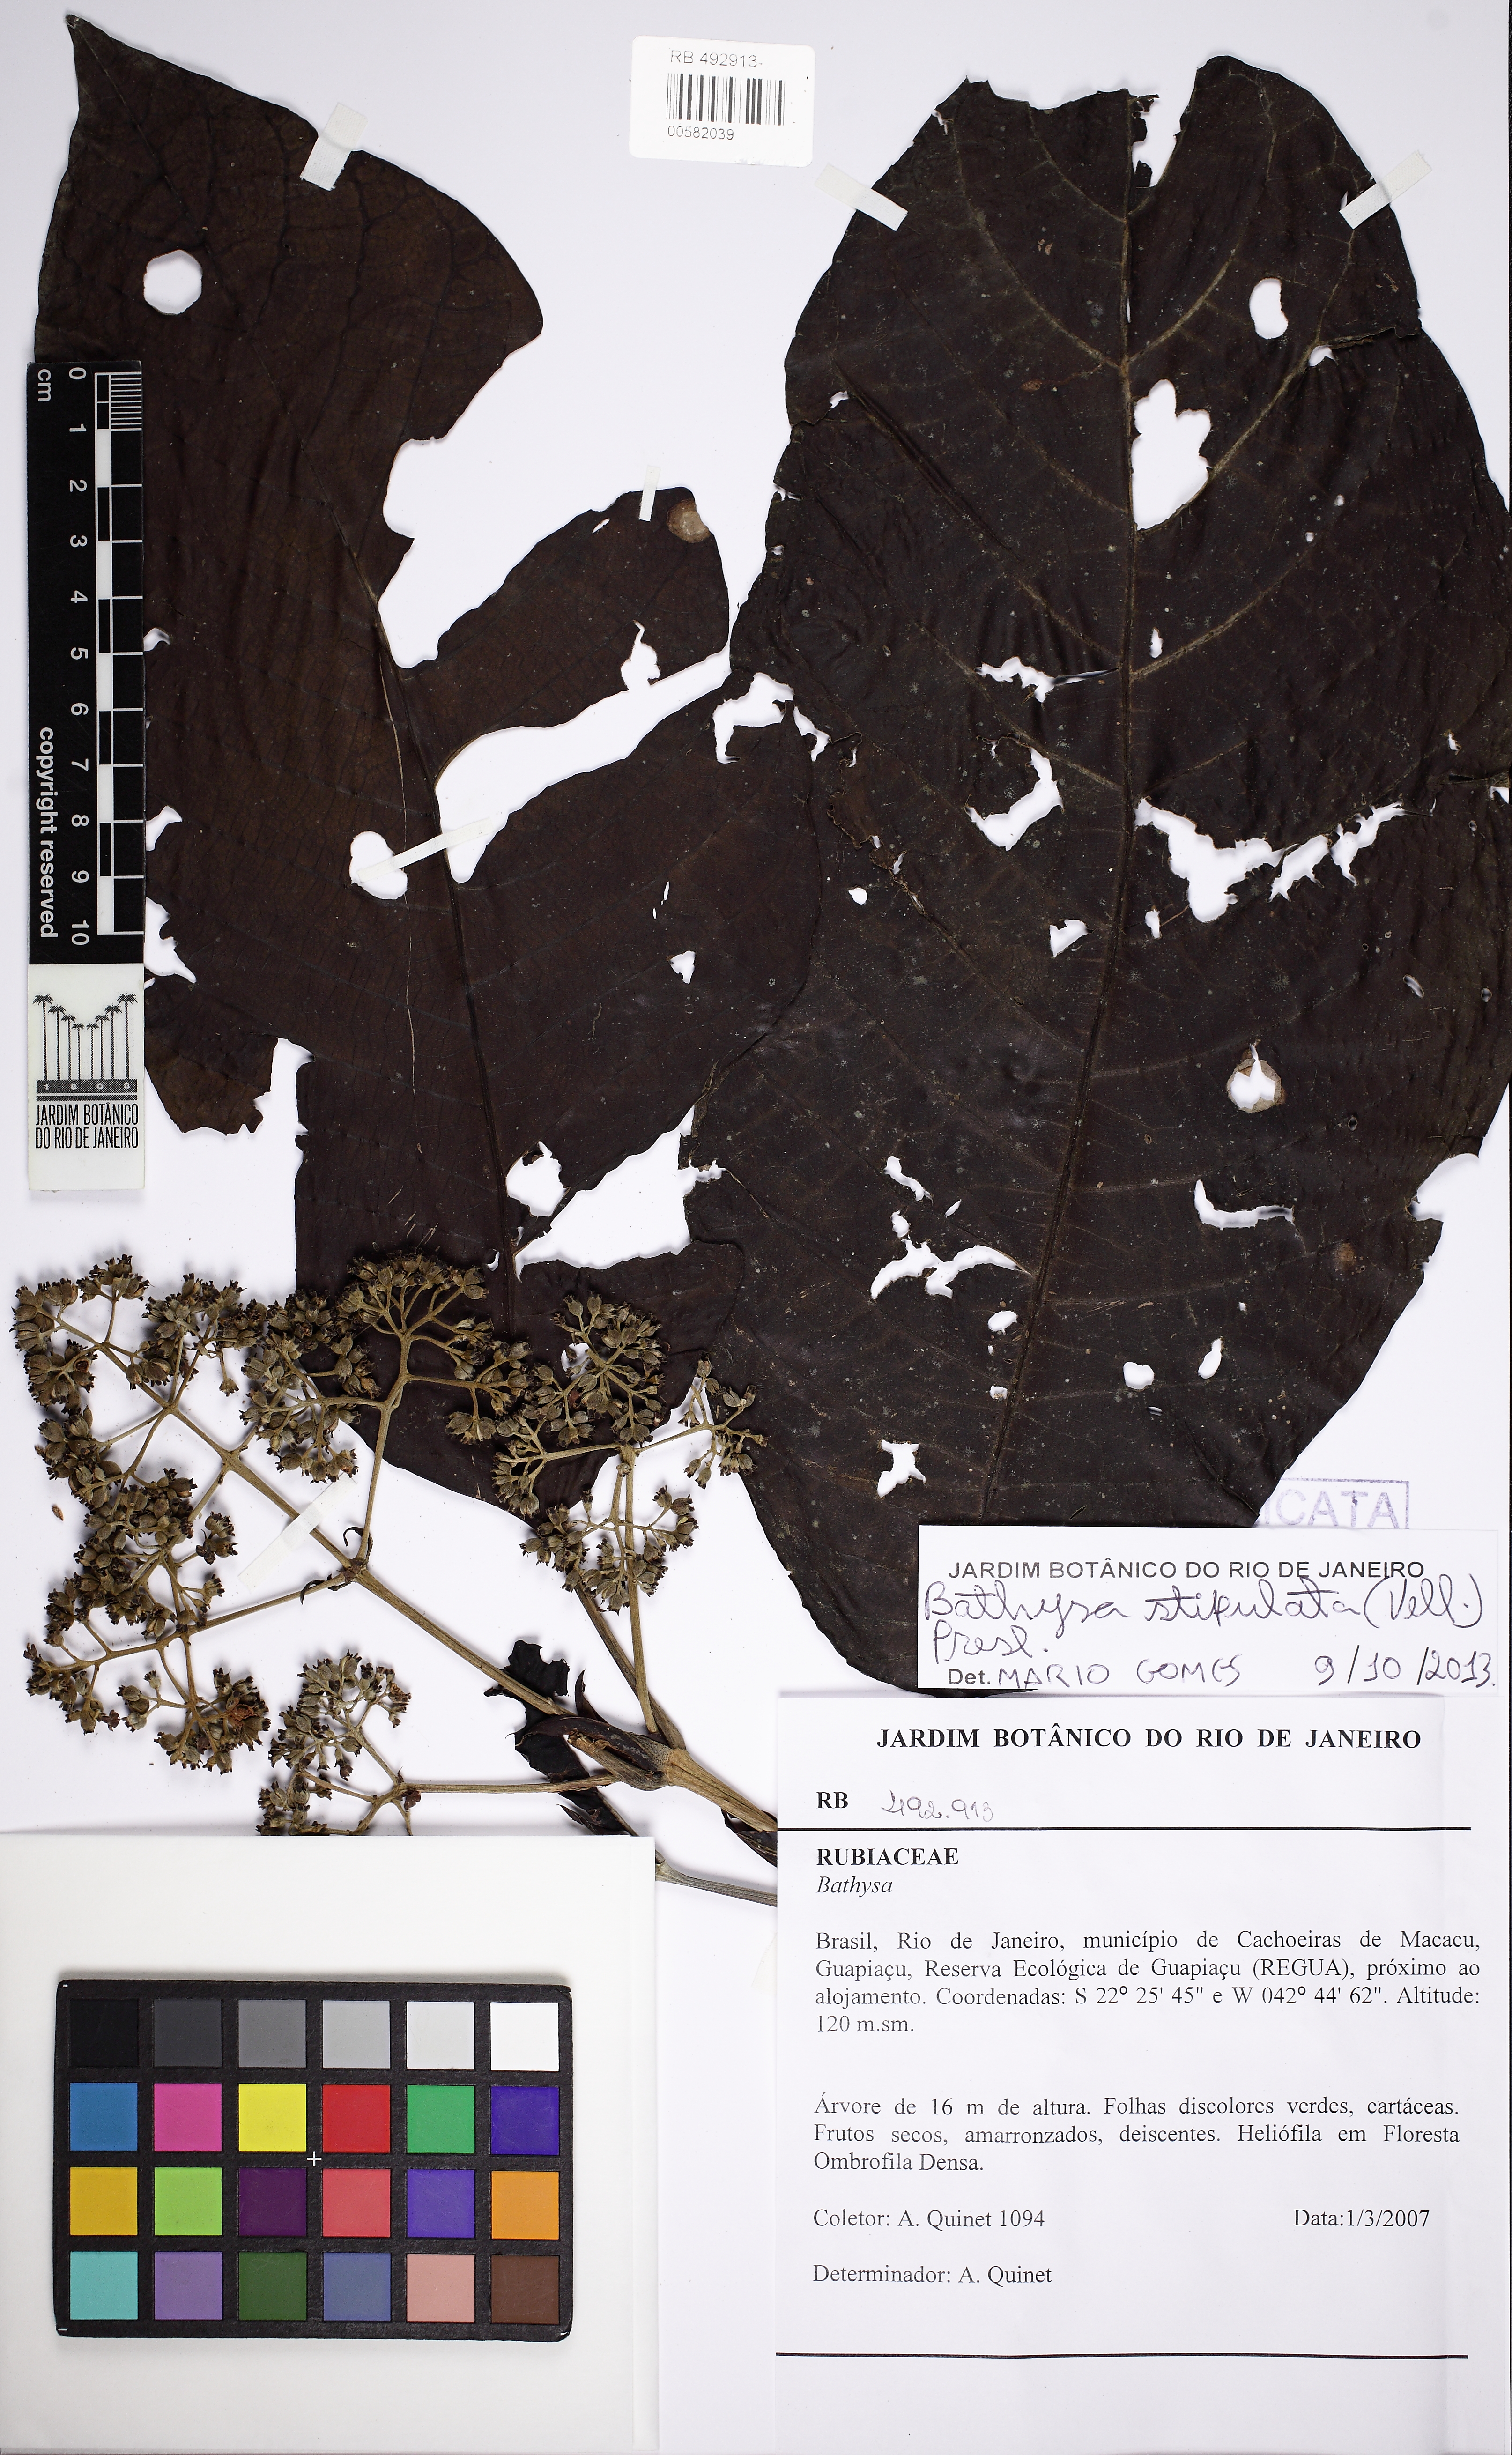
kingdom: Plantae
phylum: Tracheophyta
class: Magnoliopsida
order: Gentianales
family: Rubiaceae
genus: Bathysa
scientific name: Bathysa stipulata
